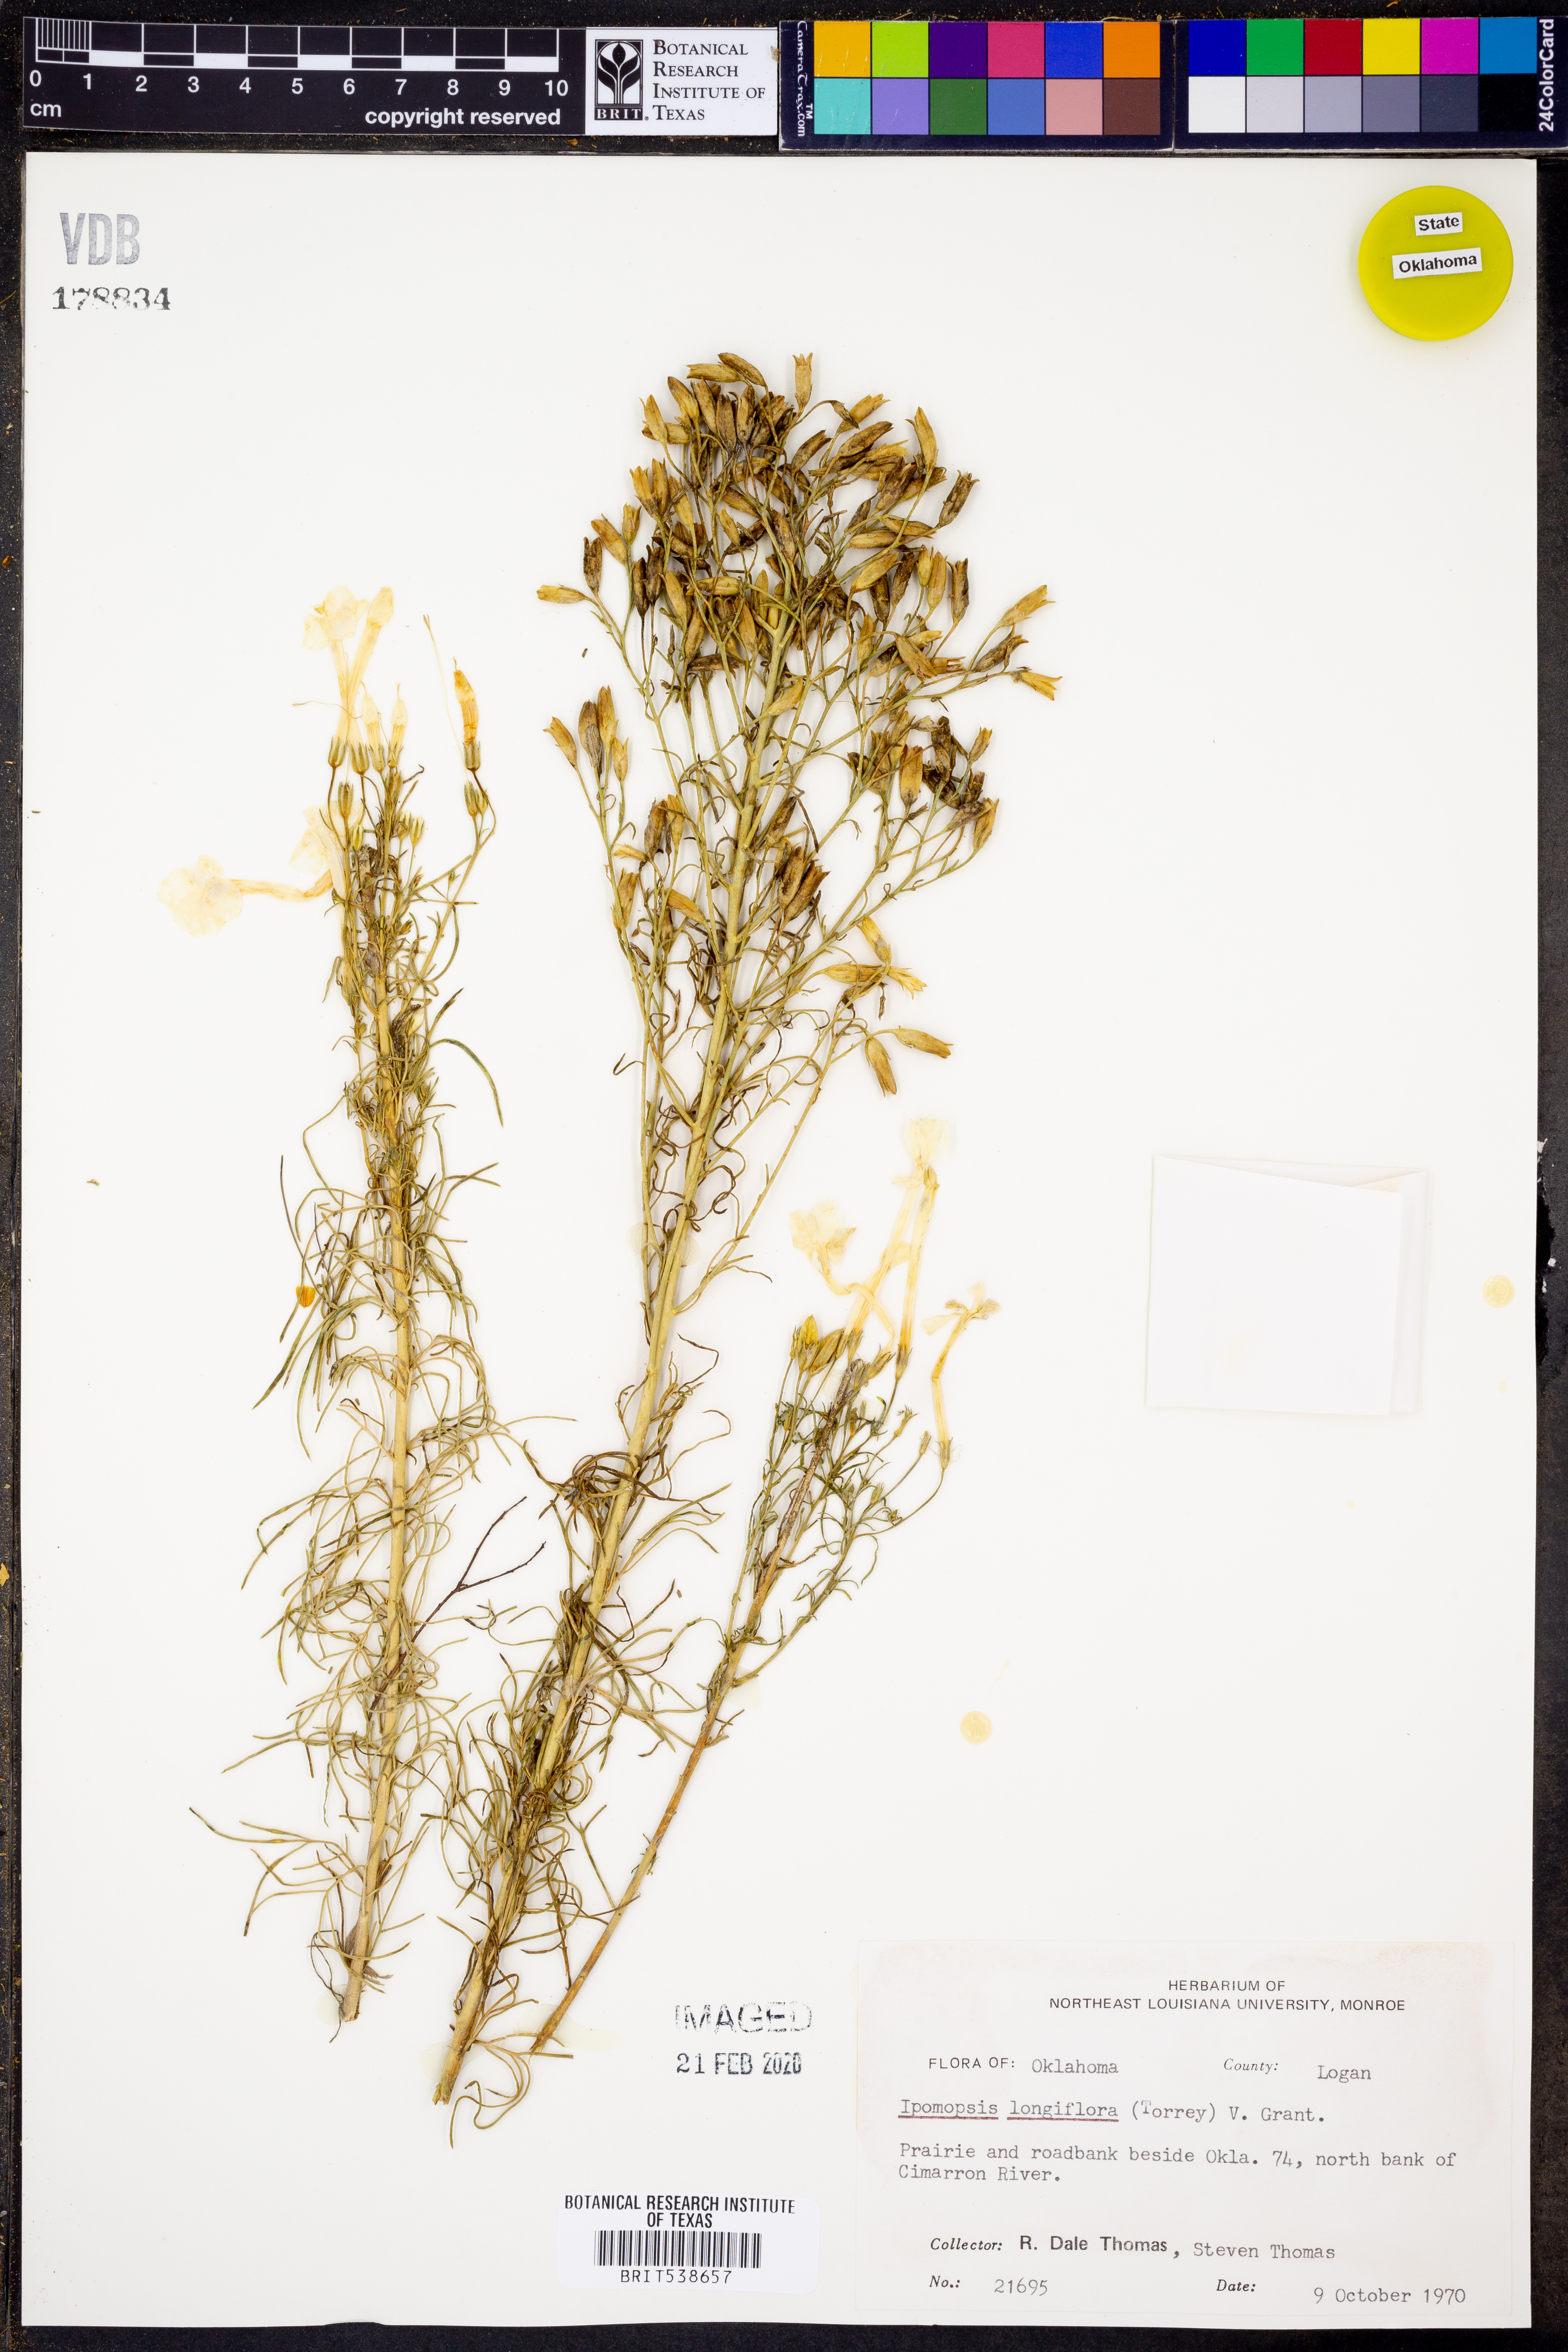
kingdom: Plantae
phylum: Tracheophyta
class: Magnoliopsida
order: Ericales
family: Polemoniaceae
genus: Ipomopsis
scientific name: Ipomopsis longiflora
